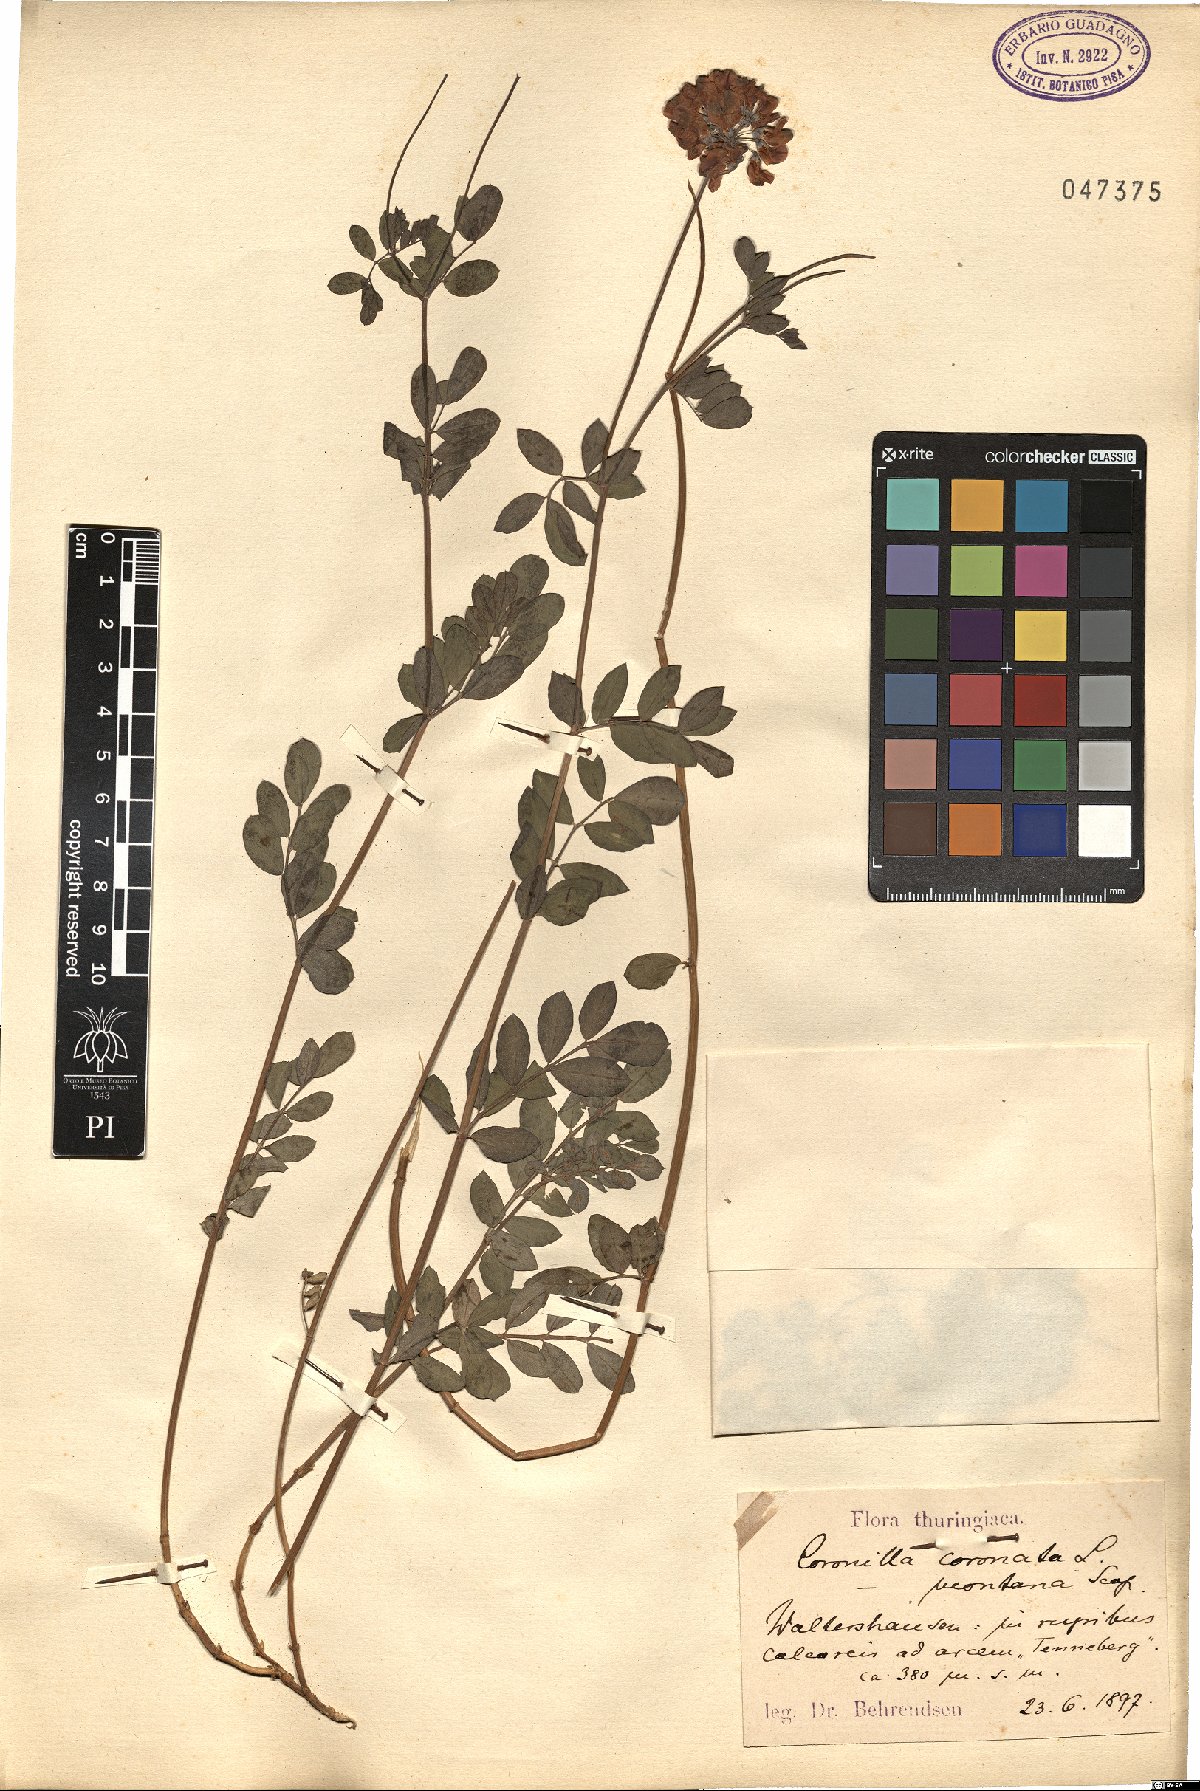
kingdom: Plantae
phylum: Tracheophyta
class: Magnoliopsida
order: Fabales
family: Fabaceae
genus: Coronilla
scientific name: Coronilla coronata
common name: Scorpion-vetch
